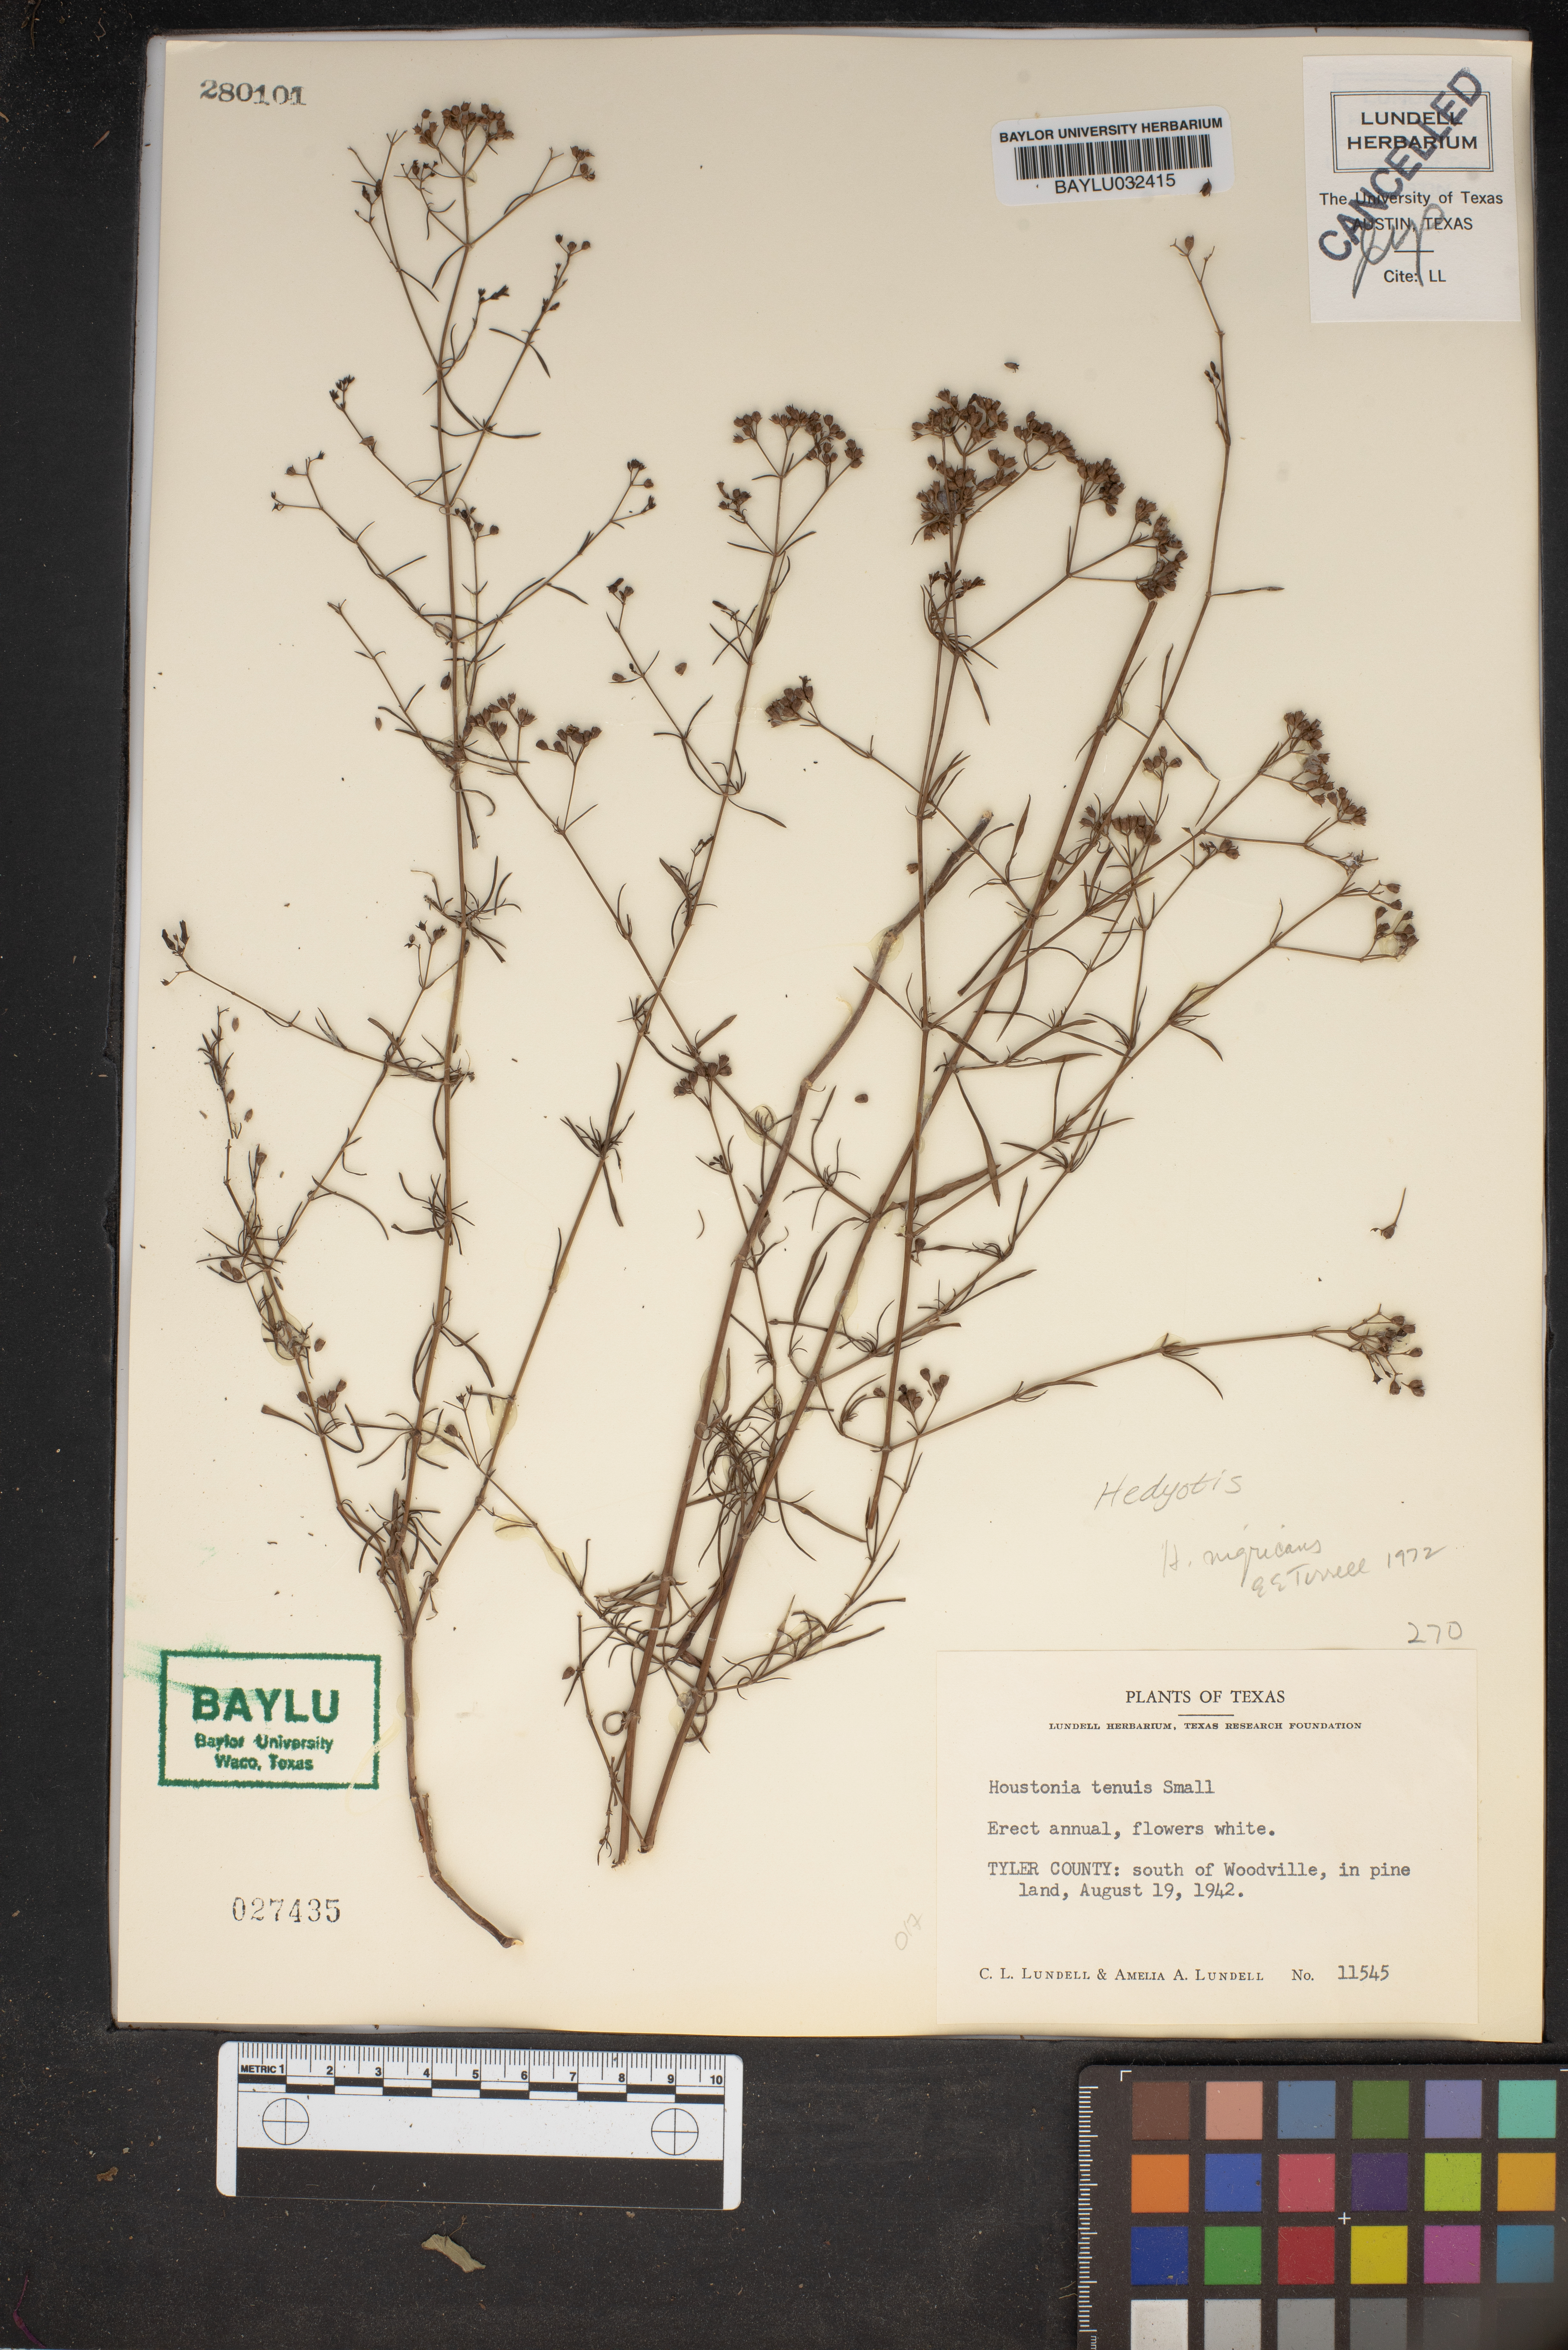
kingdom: Plantae
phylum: Tracheophyta
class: Magnoliopsida
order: Gentianales
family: Rubiaceae
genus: Stenaria
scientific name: Stenaria nigricans
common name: Diamondflowers
